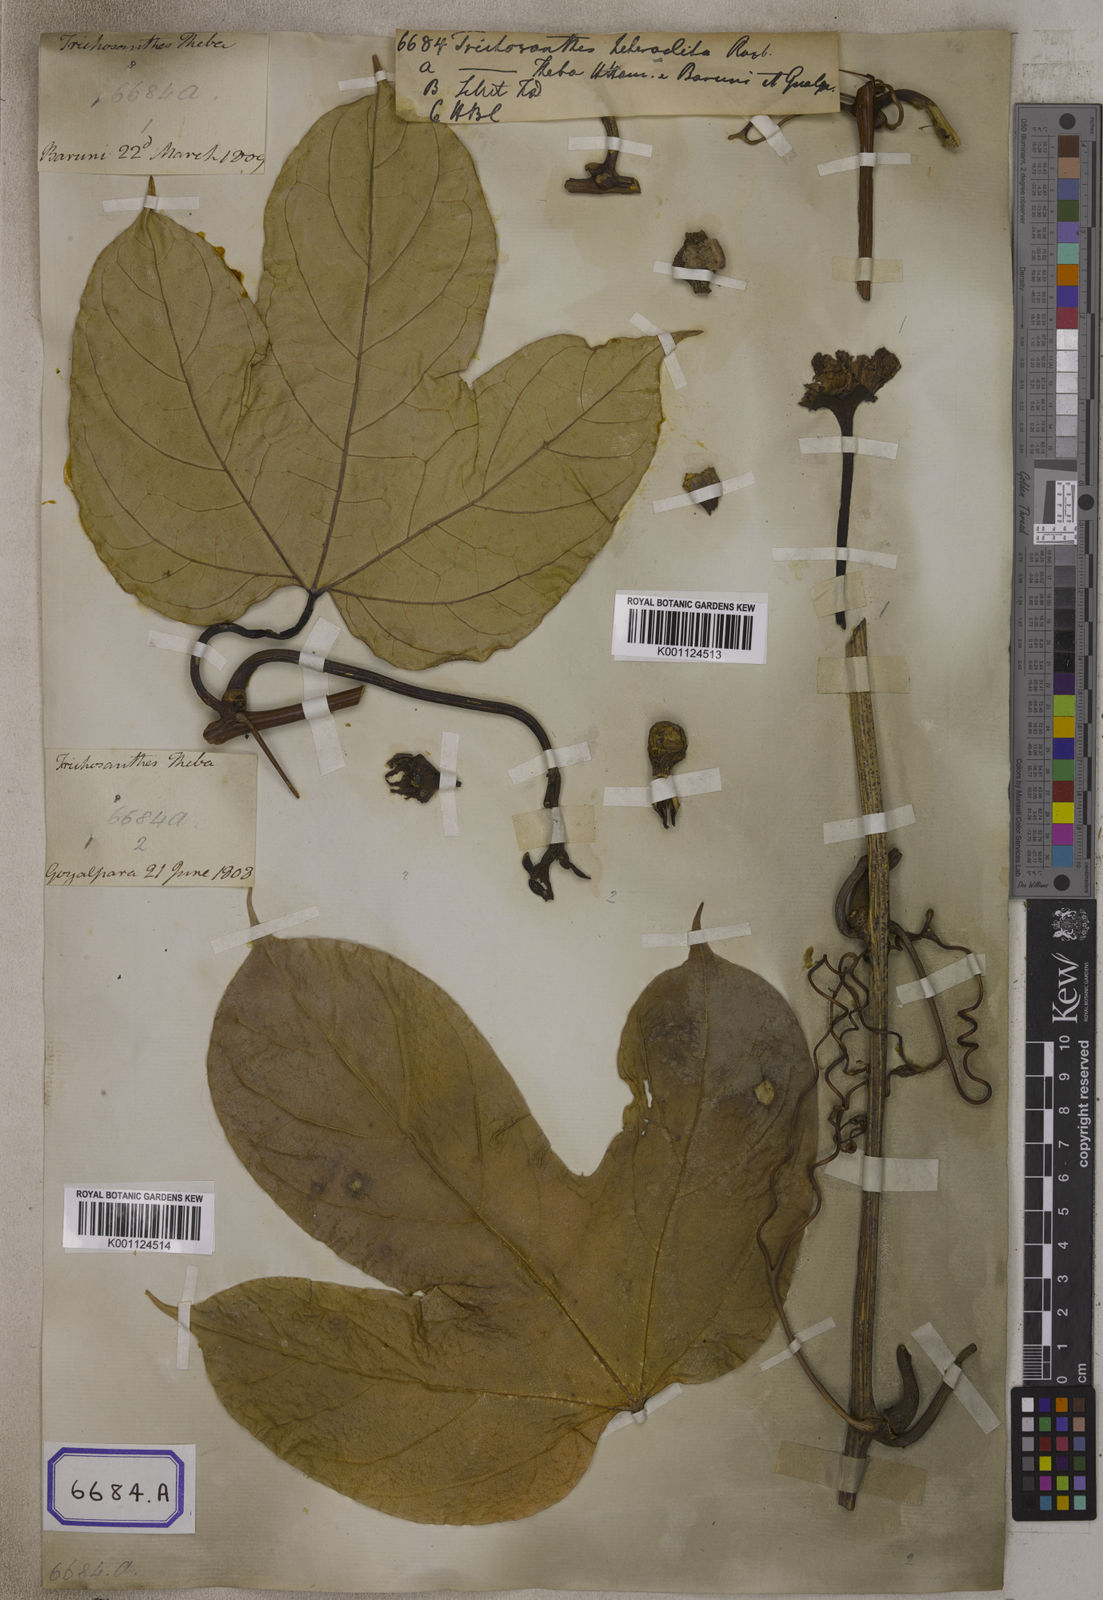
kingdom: Plantae
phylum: Tracheophyta
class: Magnoliopsida
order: Cucurbitales
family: Cucurbitaceae
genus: Hodgsonia
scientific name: Hodgsonia heteroclita
